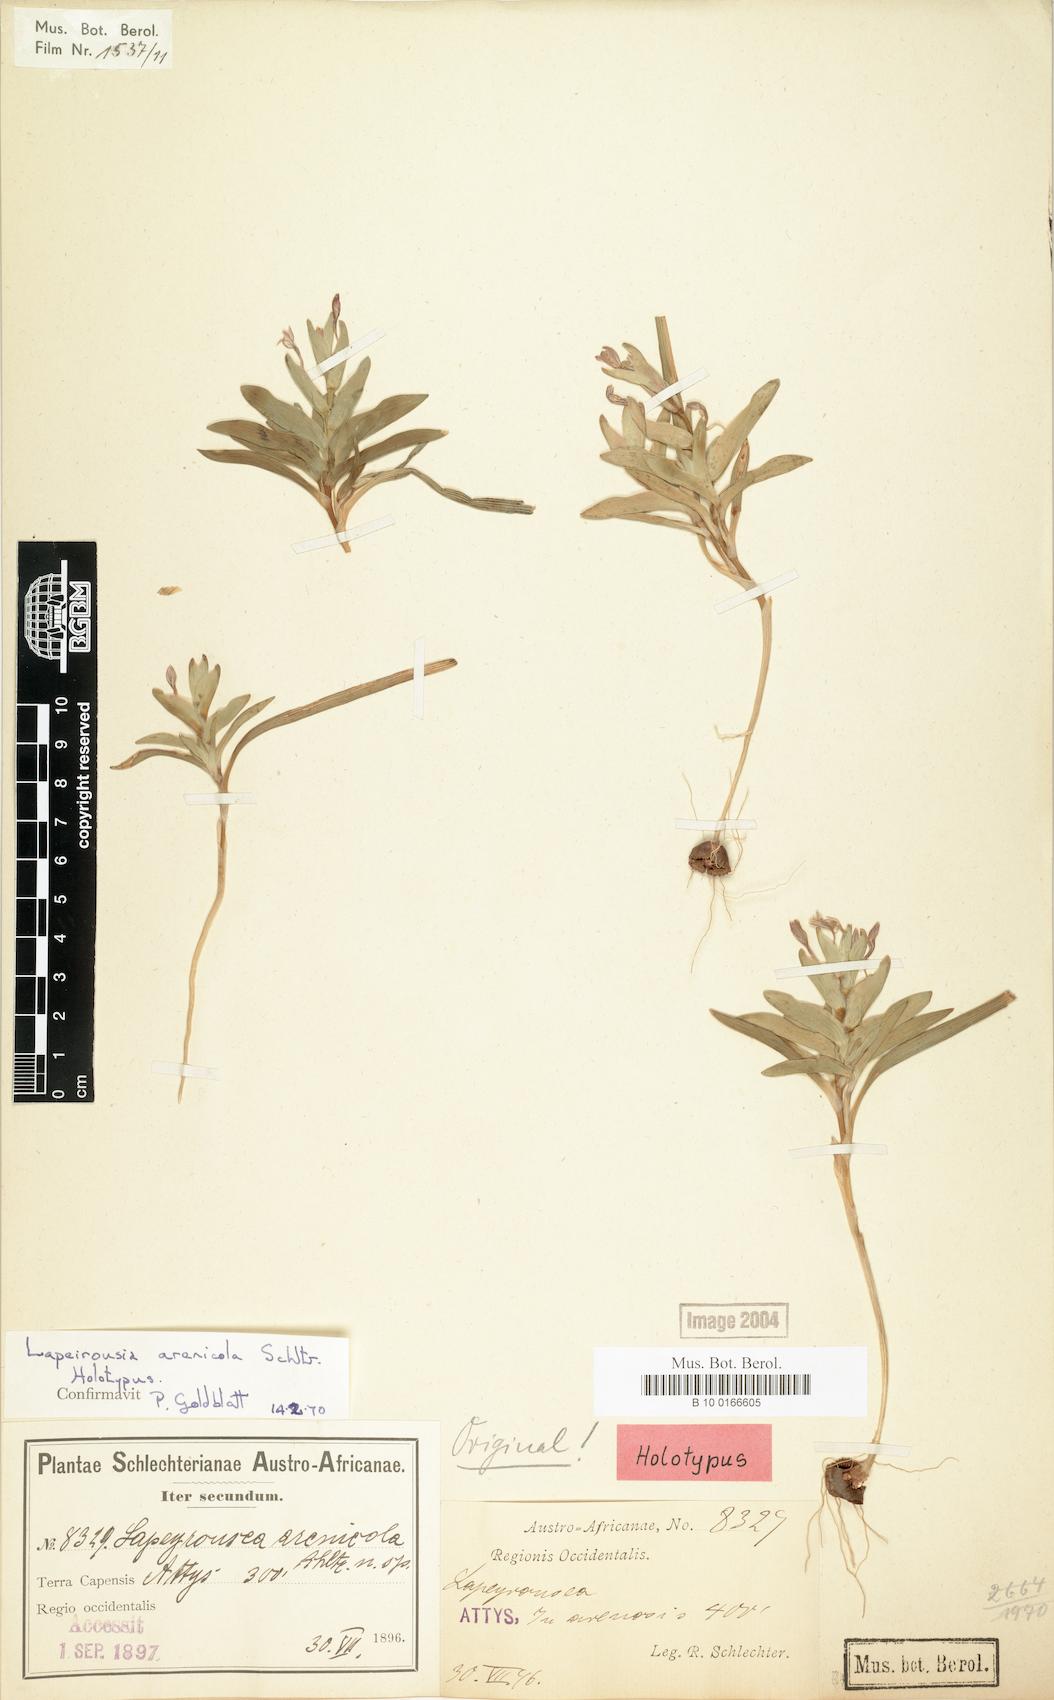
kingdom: Plantae
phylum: Tracheophyta
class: Liliopsida
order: Asparagales
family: Iridaceae
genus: Lapeirousia
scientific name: Lapeirousia arenicola
